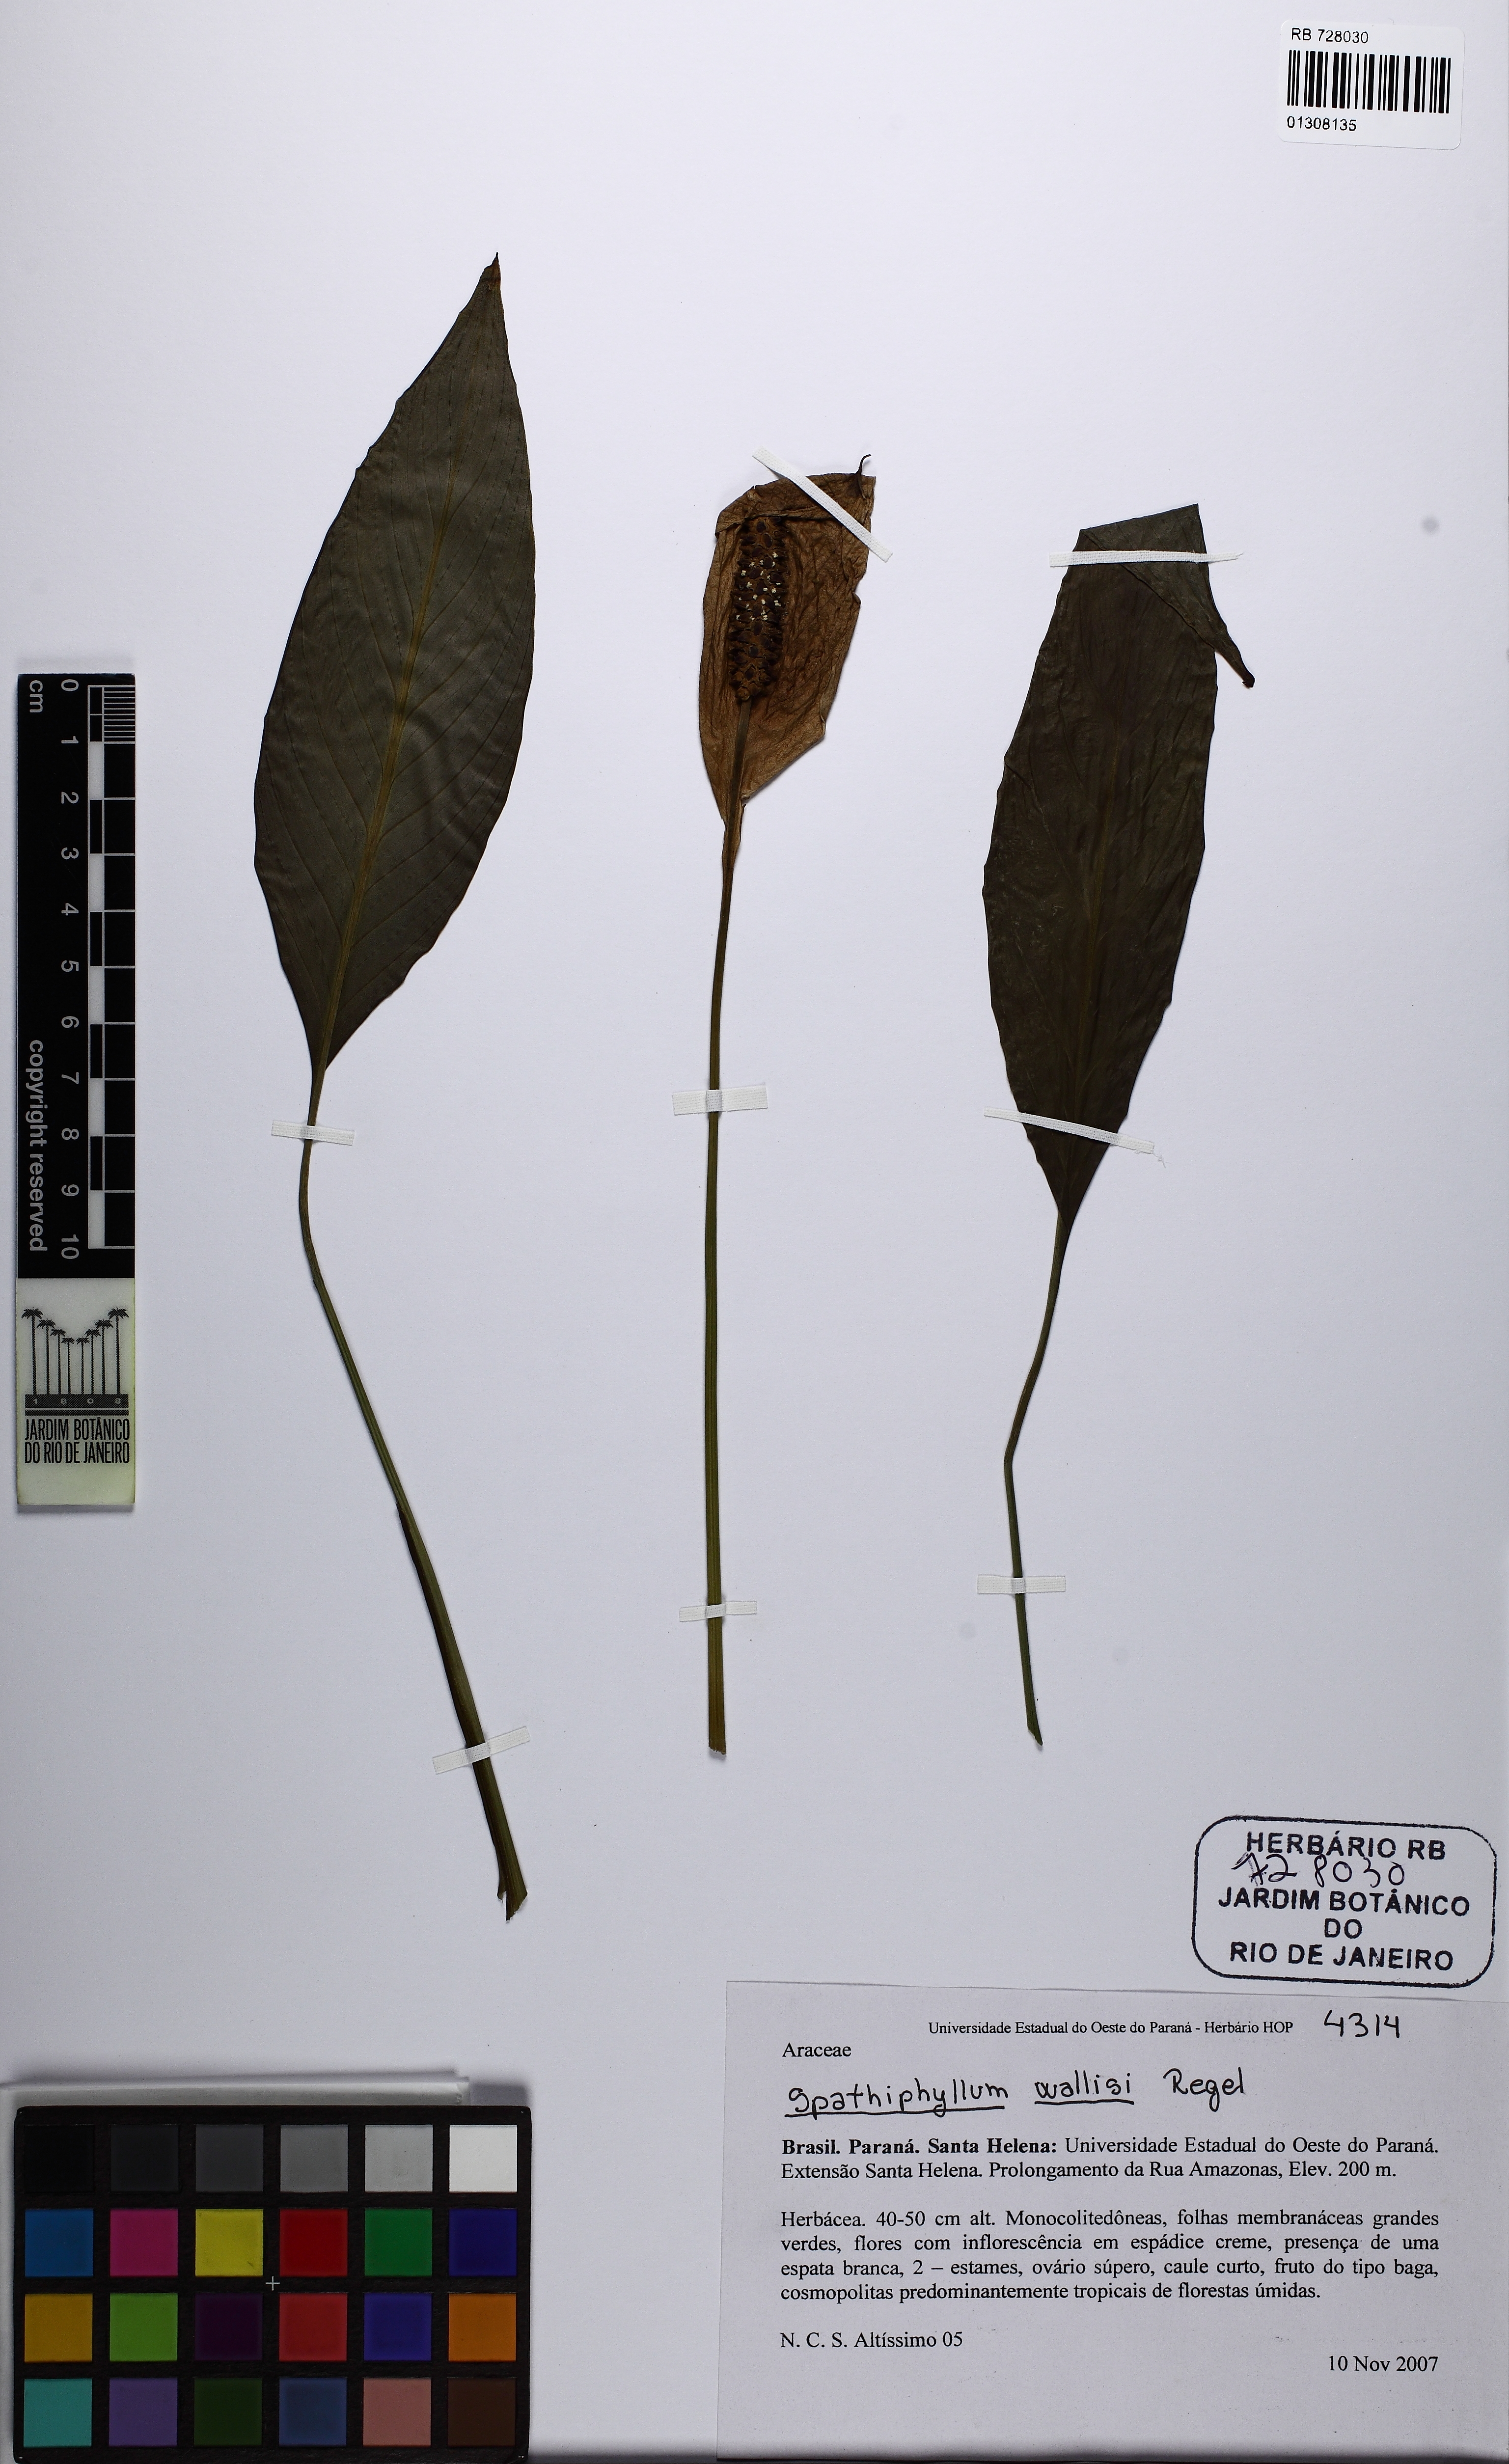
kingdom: Plantae
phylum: Tracheophyta
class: Liliopsida
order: Alismatales
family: Araceae
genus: Spathiphyllum
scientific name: Spathiphyllum
